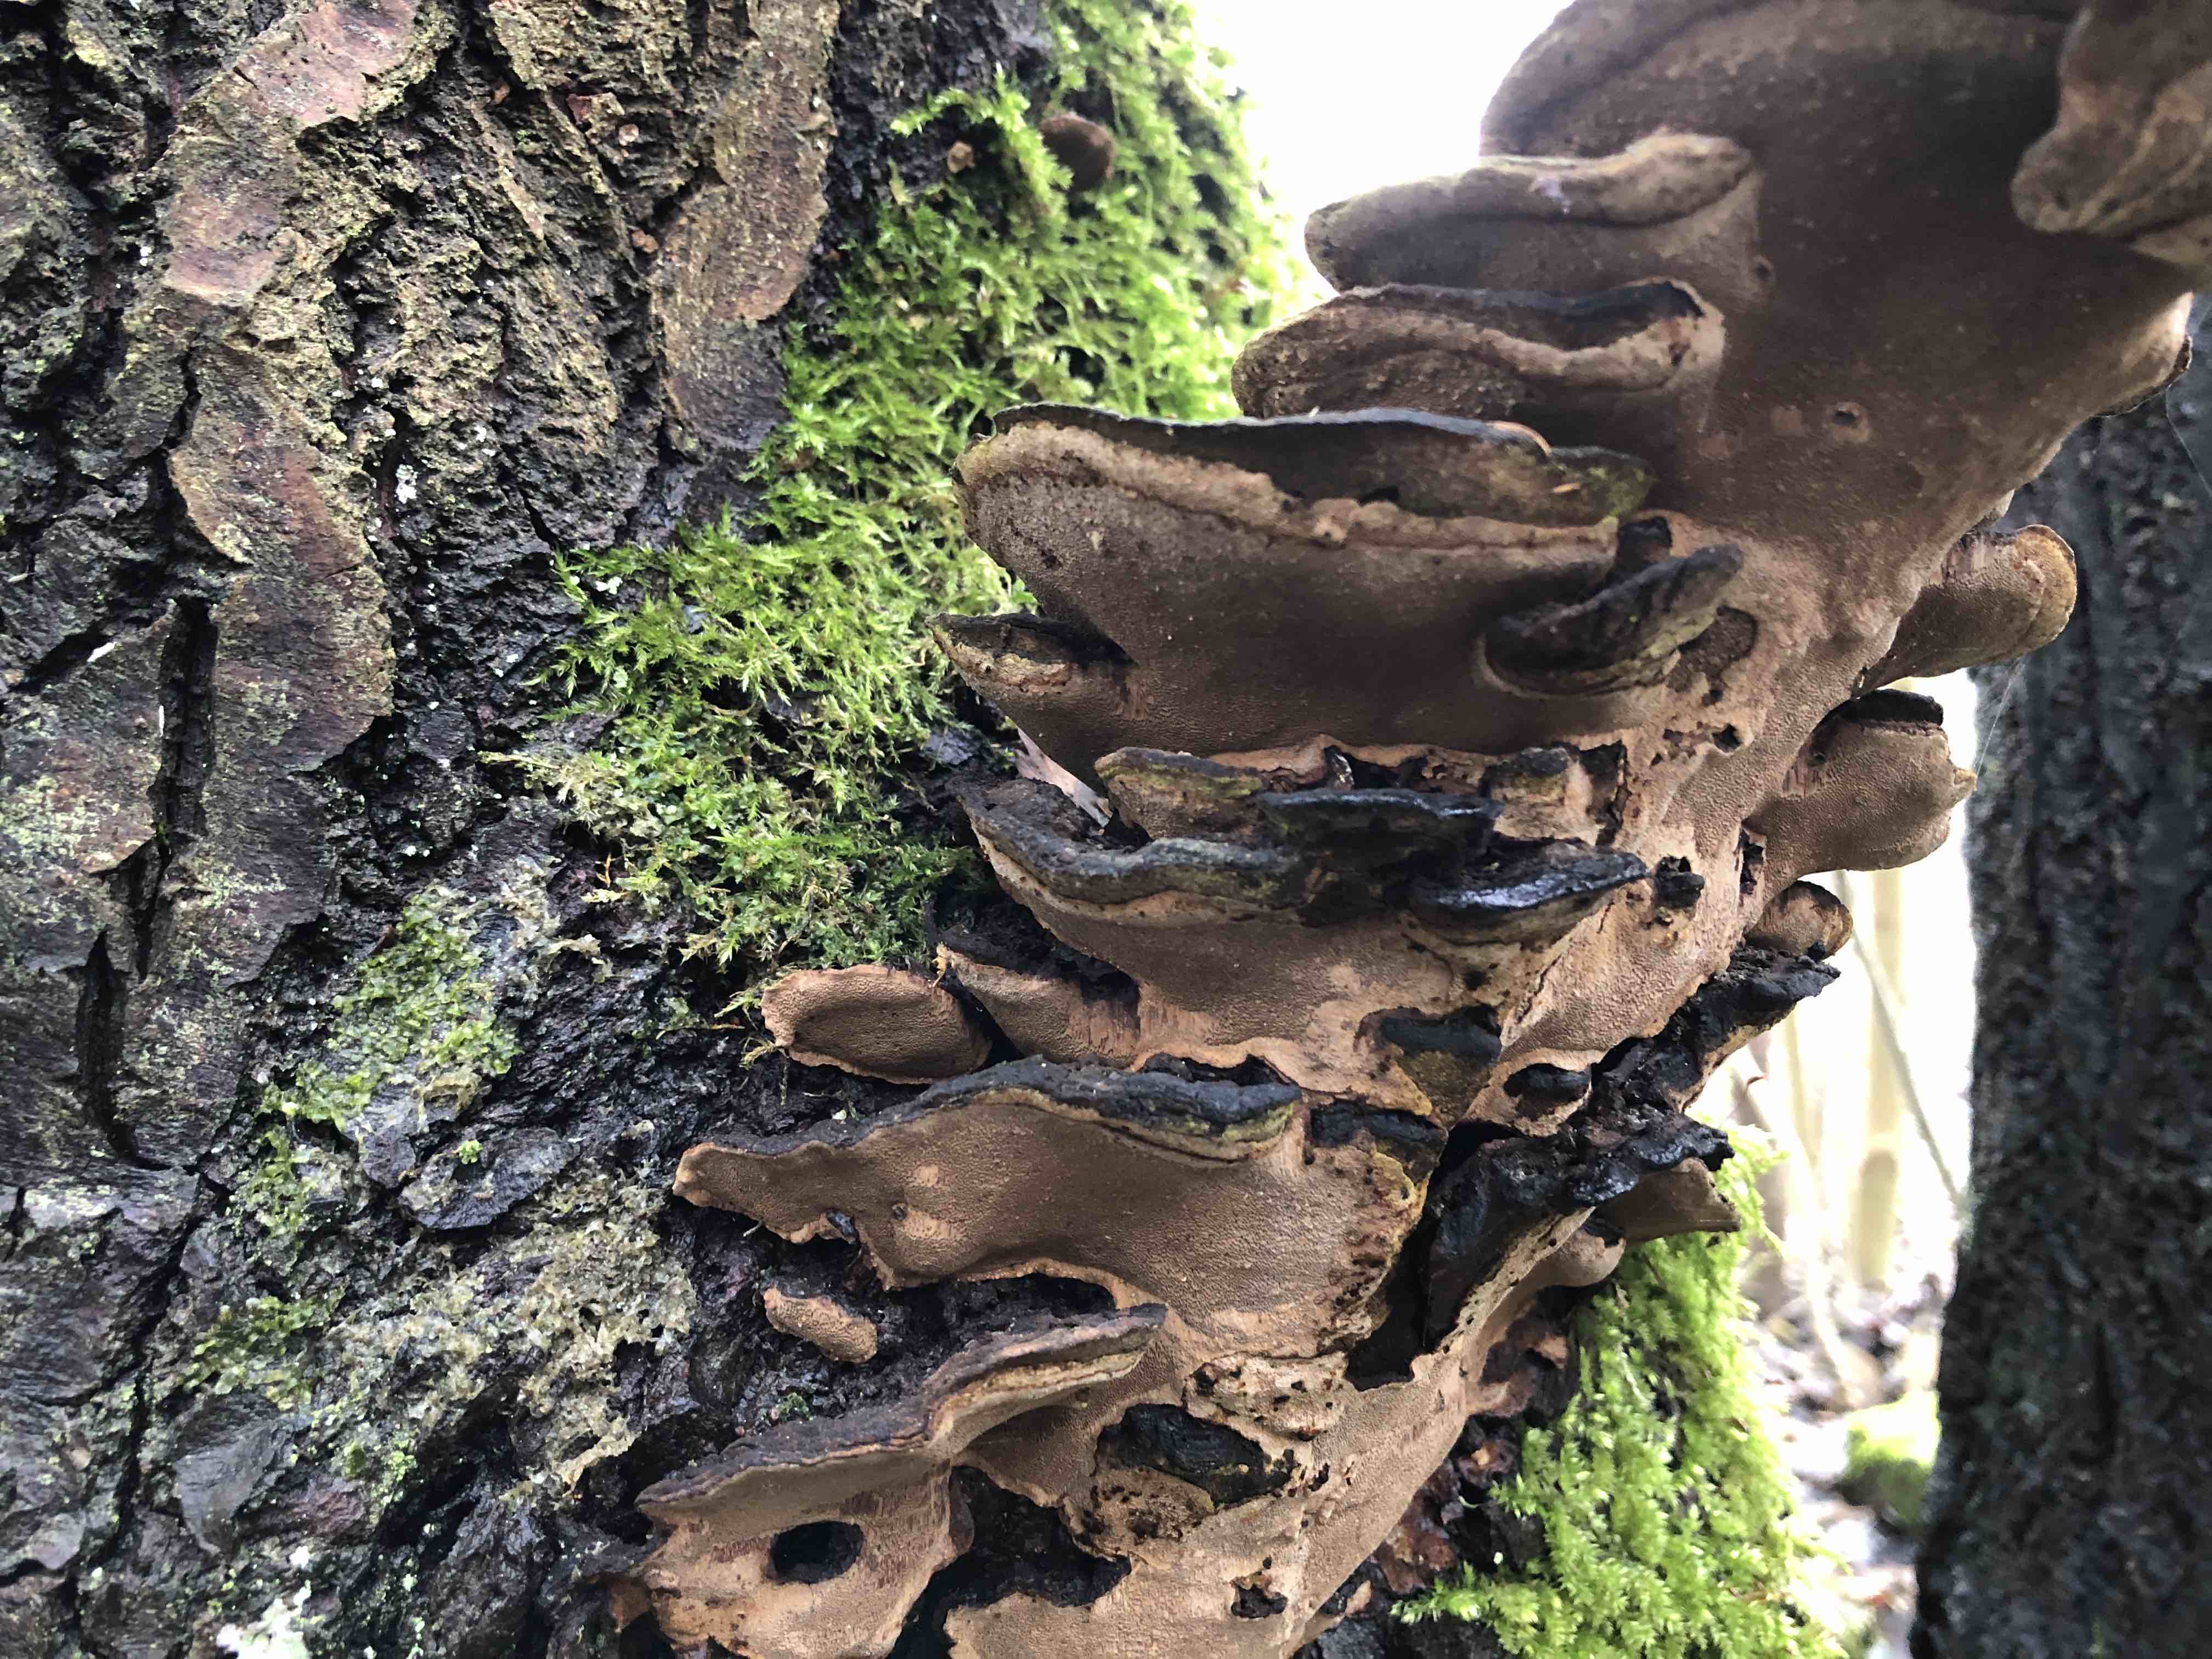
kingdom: Fungi
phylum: Basidiomycota
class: Agaricomycetes
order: Hymenochaetales
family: Hymenochaetaceae
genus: Phellinopsis
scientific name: Phellinopsis conchata
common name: pile-ildporesvamp
